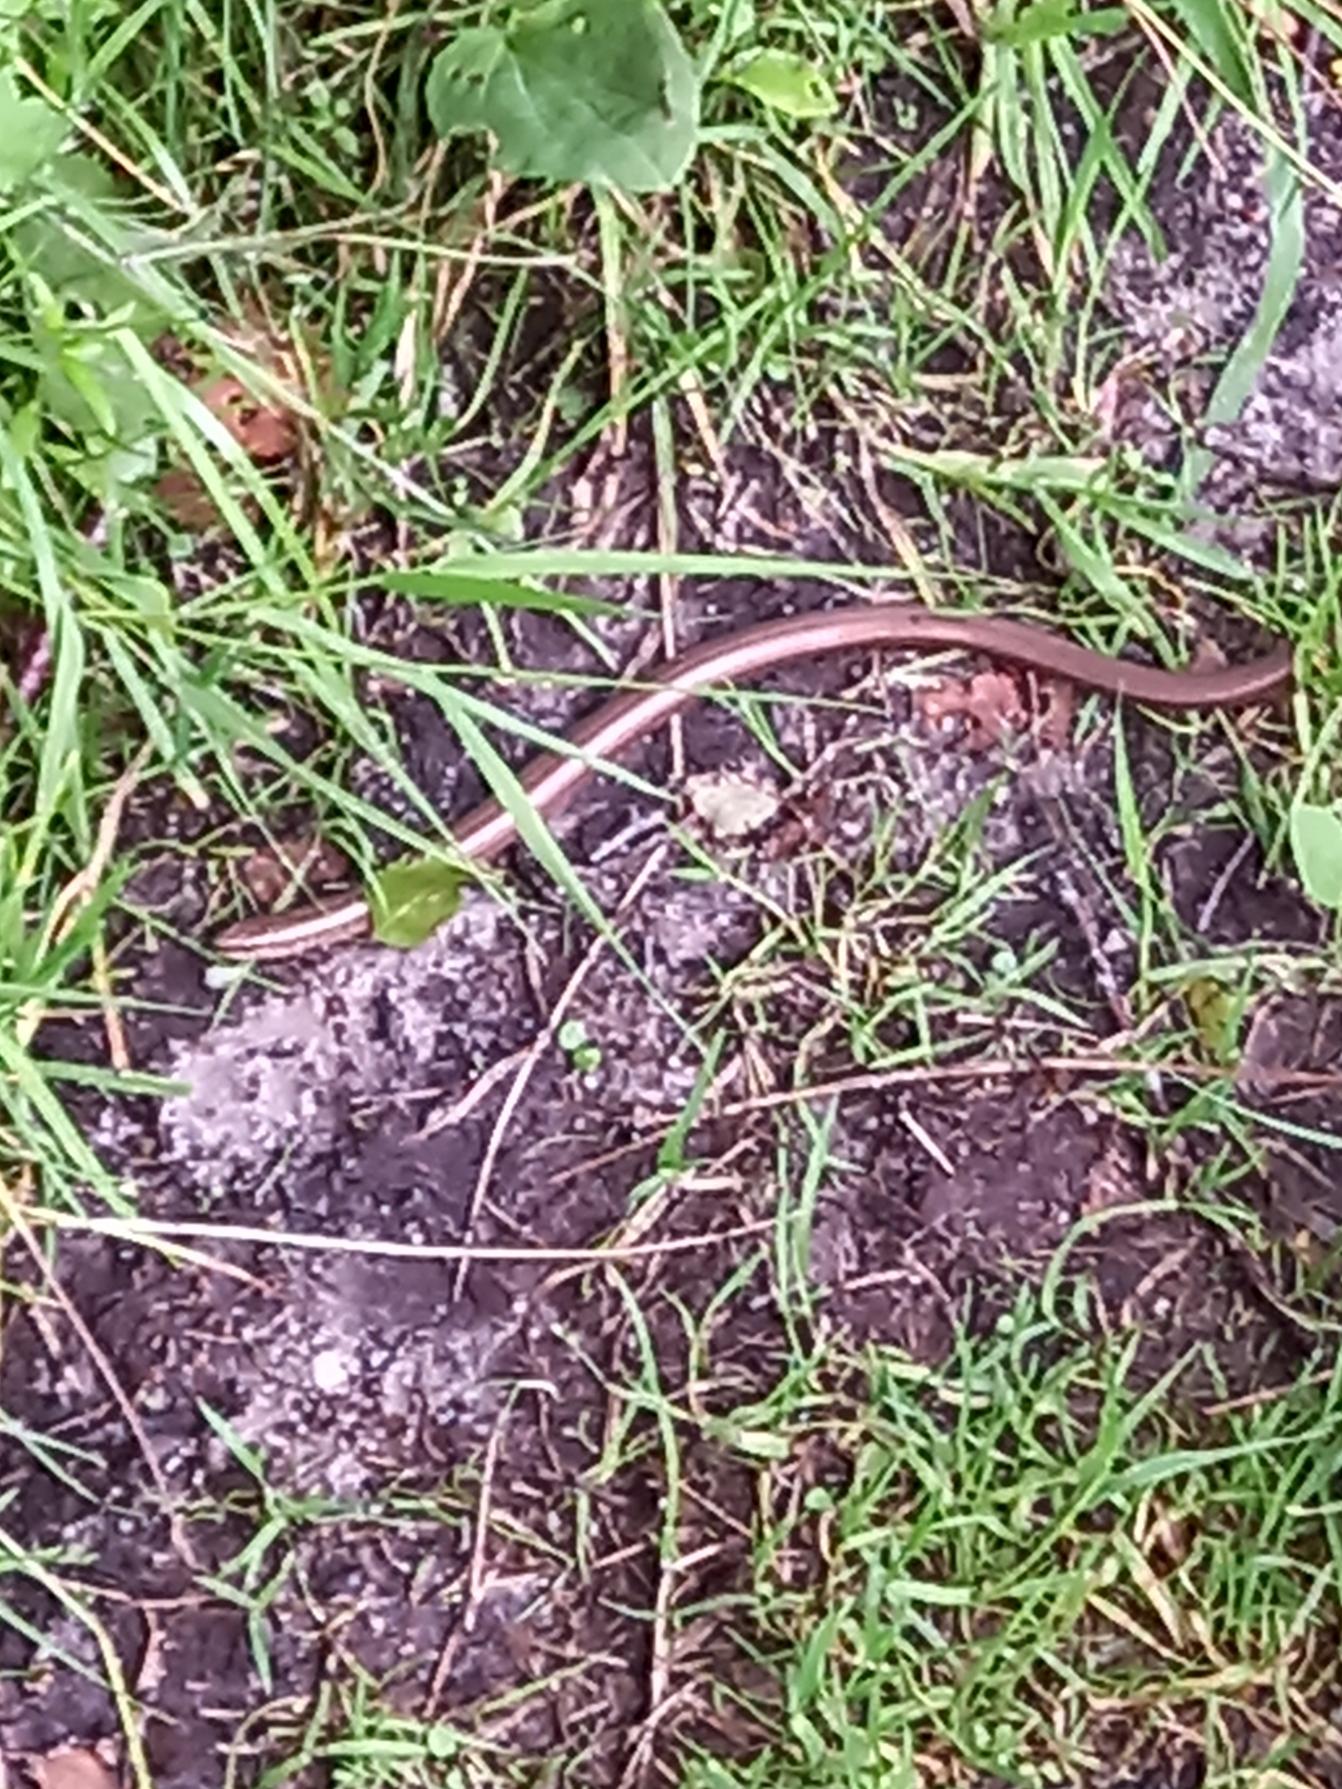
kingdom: Animalia
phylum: Chordata
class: Squamata
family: Anguidae
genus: Anguis
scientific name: Anguis fragilis
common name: Stålorm
